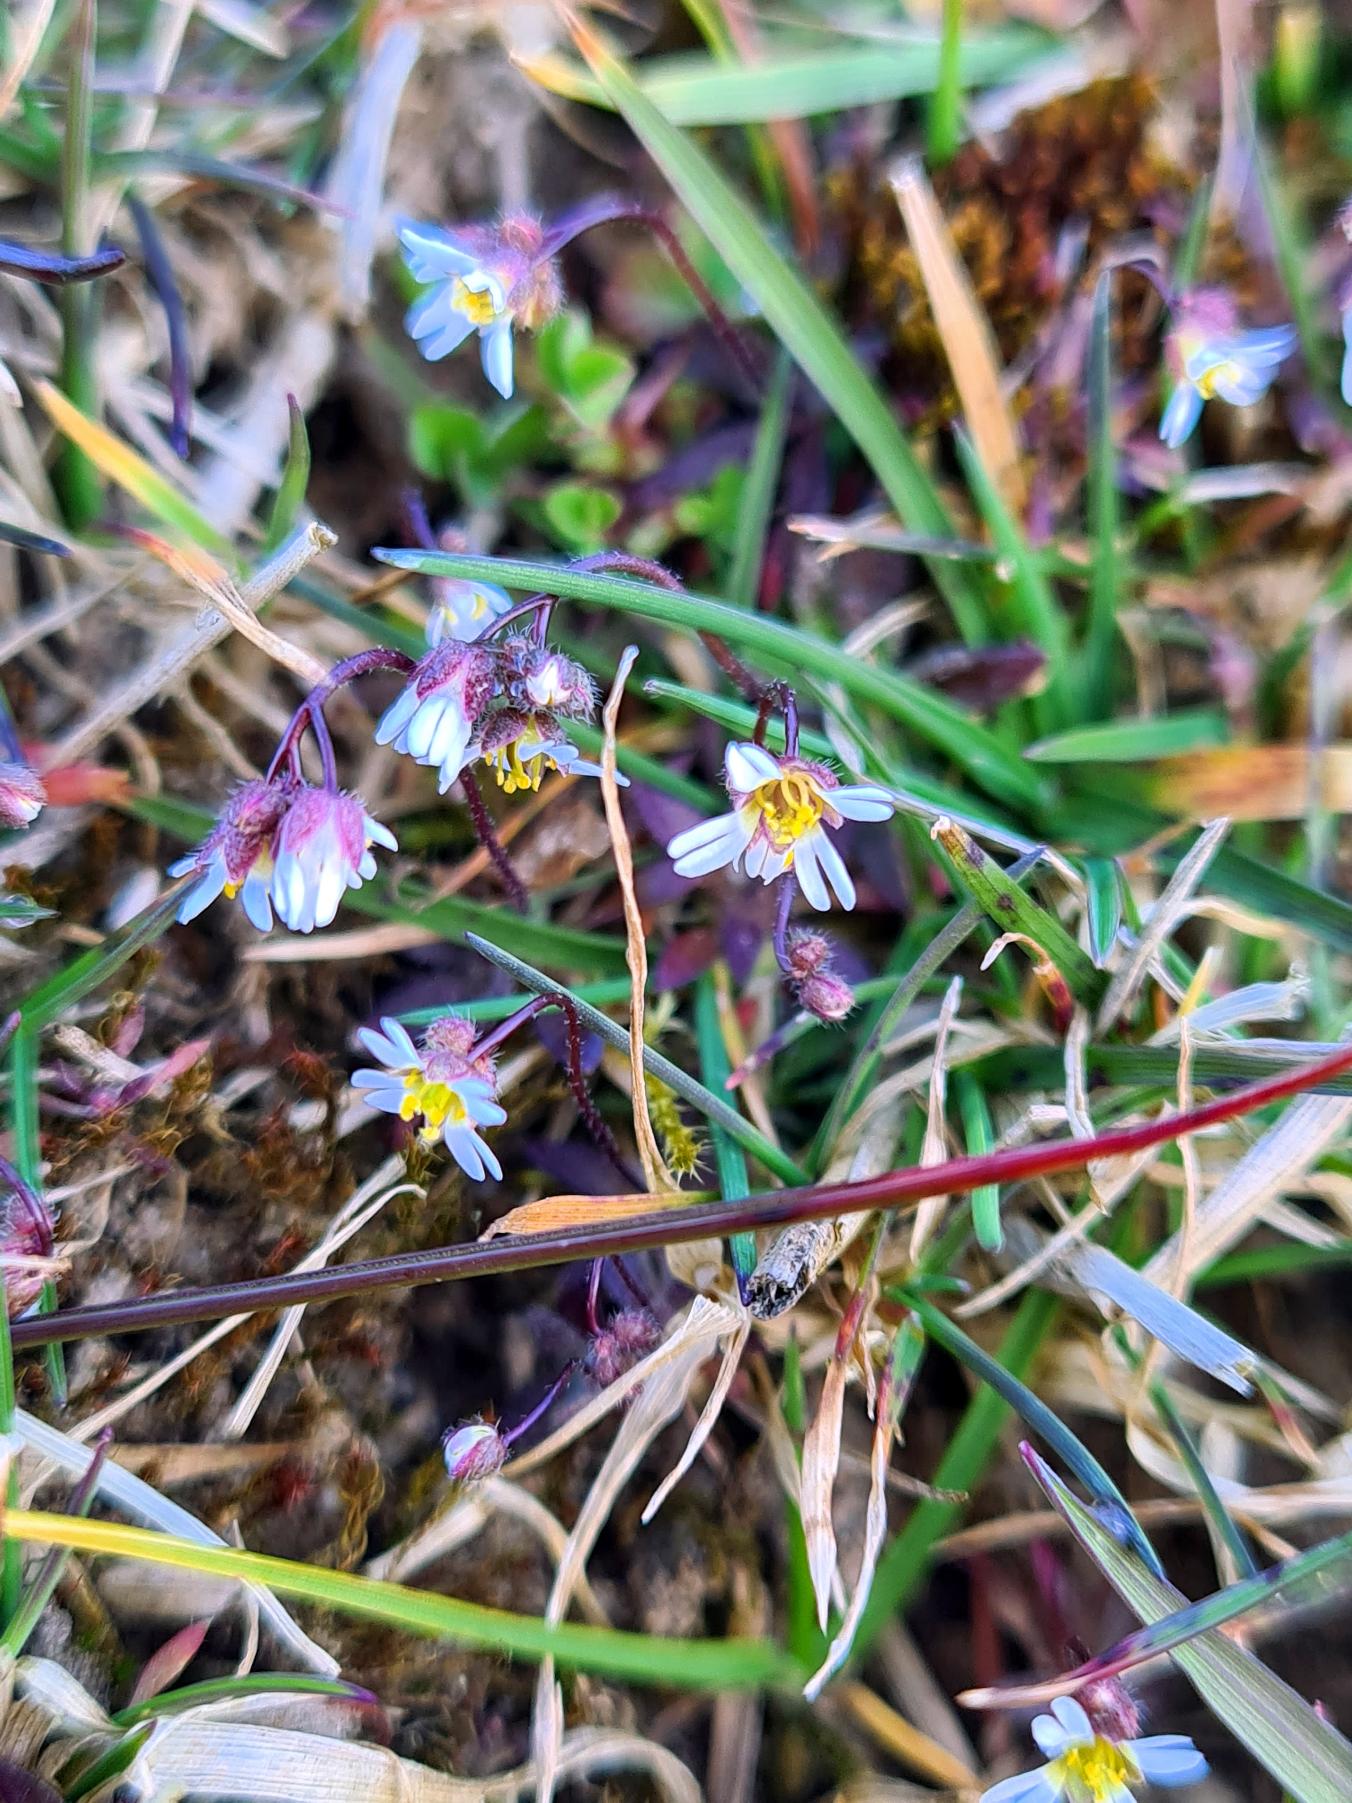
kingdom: Plantae
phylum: Tracheophyta
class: Magnoliopsida
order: Brassicales
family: Brassicaceae
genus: Draba
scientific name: Draba verna
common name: Vår-gæslingeblomst
